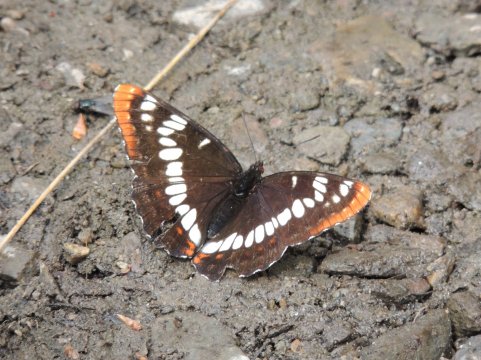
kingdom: Animalia
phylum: Arthropoda
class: Insecta
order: Lepidoptera
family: Nymphalidae
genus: Limenitis
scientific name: Limenitis lorquini
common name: Lorquin's Admiral
